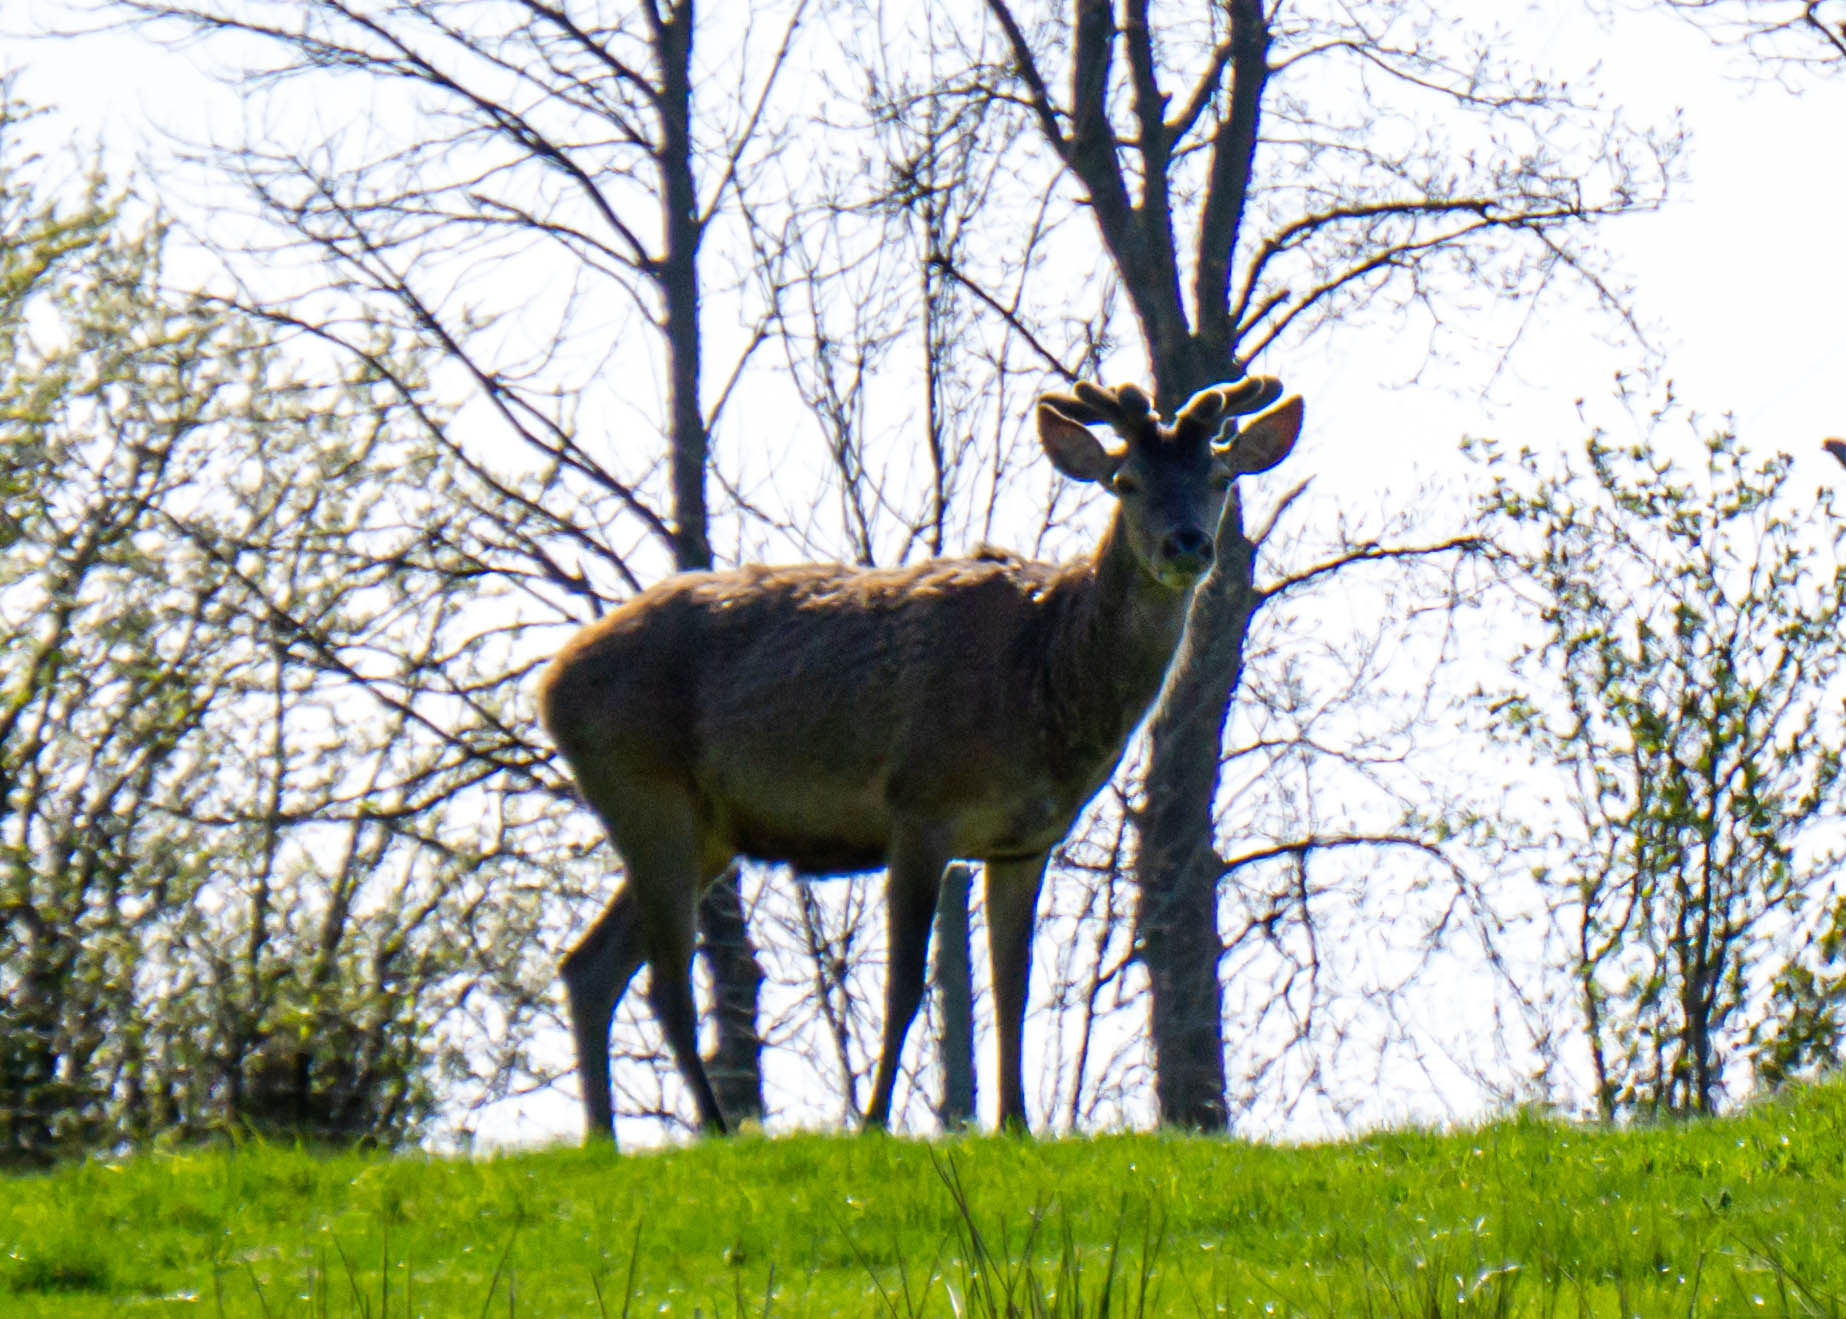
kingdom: Animalia
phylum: Chordata
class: Mammalia
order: Artiodactyla
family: Cervidae
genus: Cervus
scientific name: Cervus elaphus
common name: Krondyr
